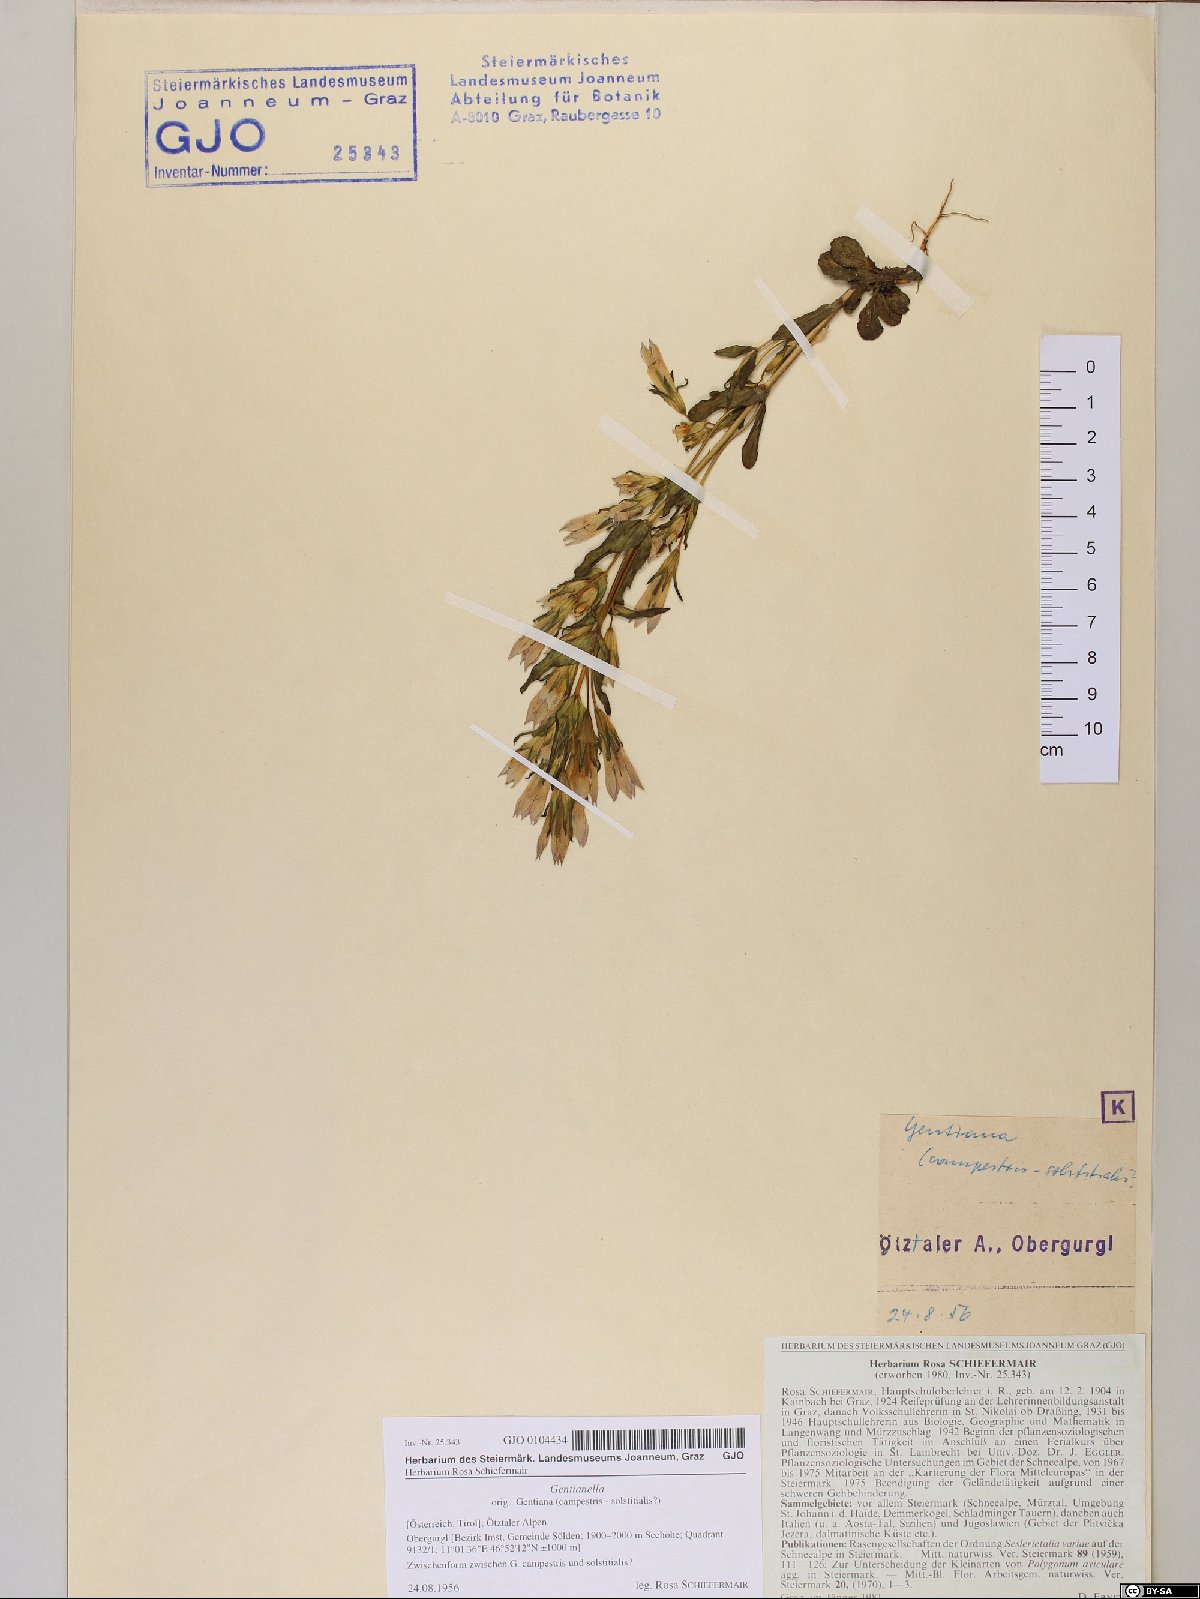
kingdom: Plantae
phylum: Tracheophyta
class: Magnoliopsida
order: Gentianales
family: Gentianaceae
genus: Gentianella
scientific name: Gentianella
